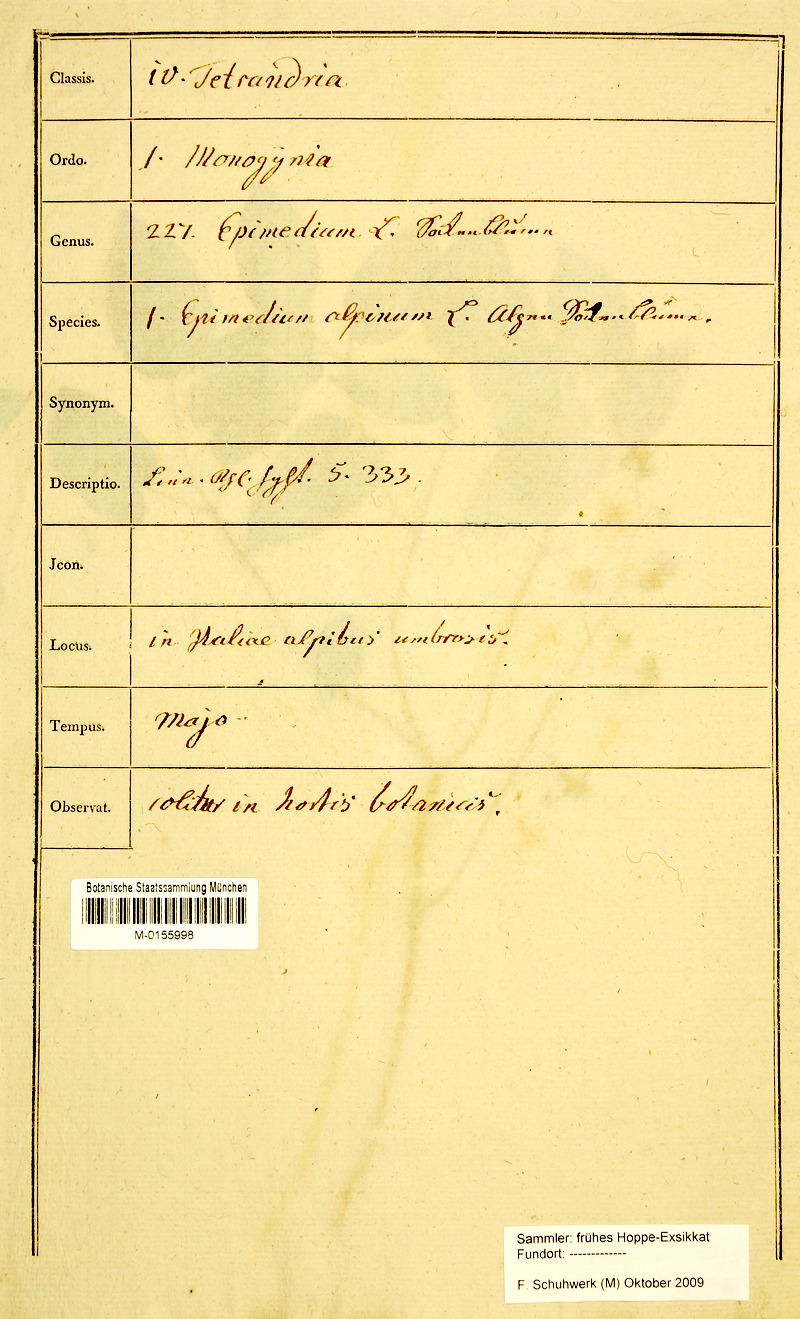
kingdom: Plantae
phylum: Tracheophyta
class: Magnoliopsida
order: Ranunculales
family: Berberidaceae
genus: Epimedium
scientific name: Epimedium alpinum
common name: Barrenwort
